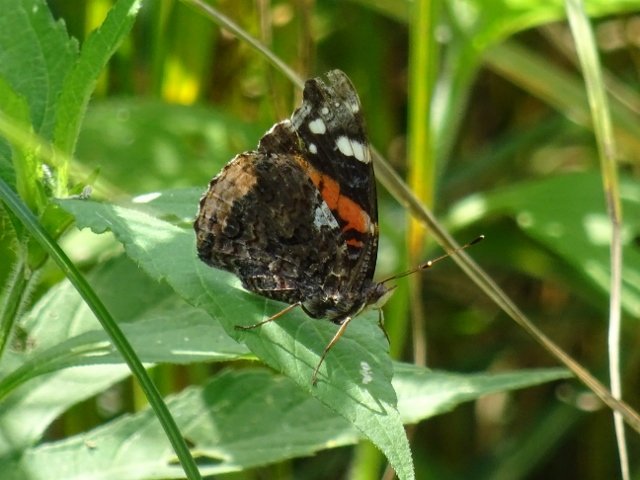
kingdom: Animalia
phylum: Arthropoda
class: Insecta
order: Lepidoptera
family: Nymphalidae
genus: Vanessa
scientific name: Vanessa atalanta
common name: Red Admiral
